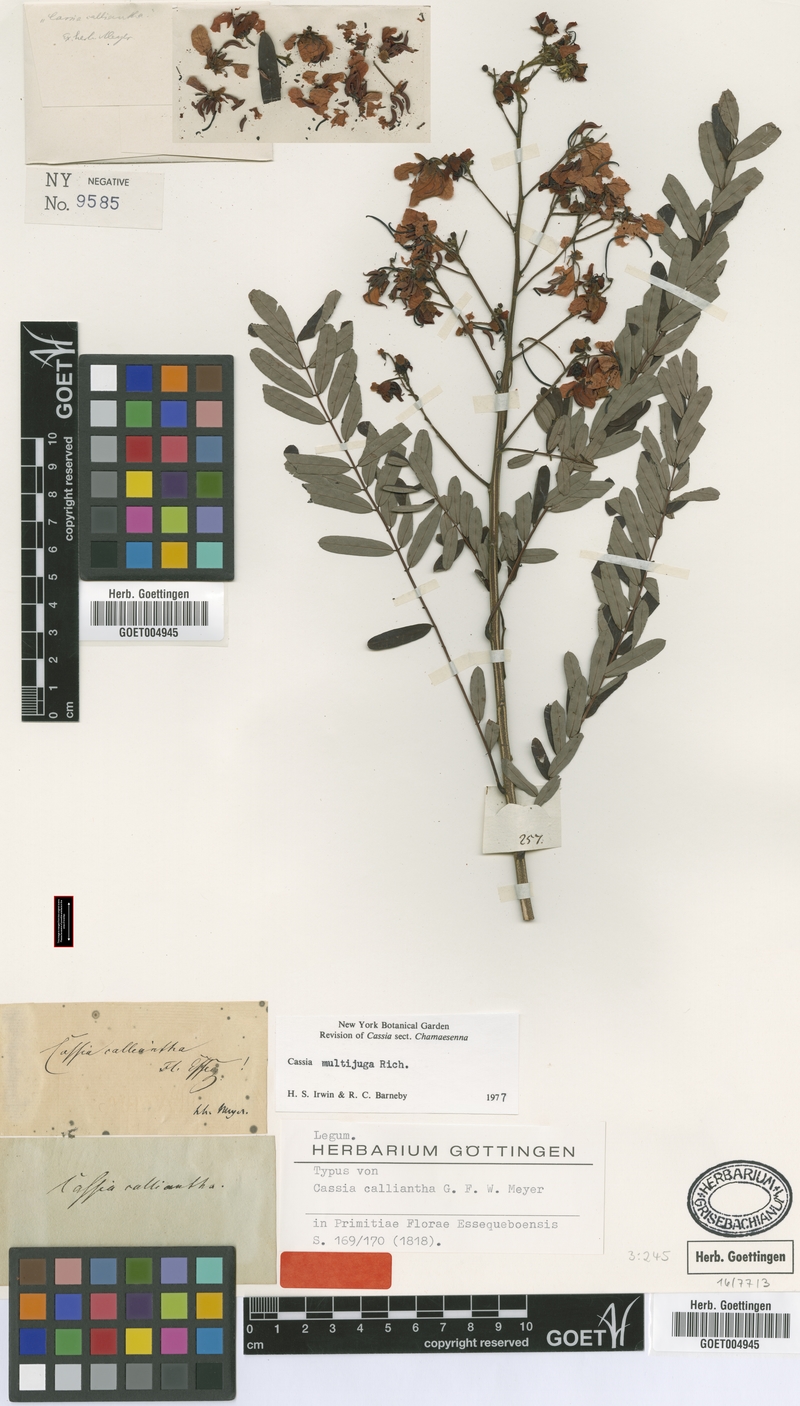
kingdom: Plantae
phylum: Tracheophyta
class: Magnoliopsida
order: Fabales
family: Fabaceae
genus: Senna
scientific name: Senna multijuga
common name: False sicklepod
